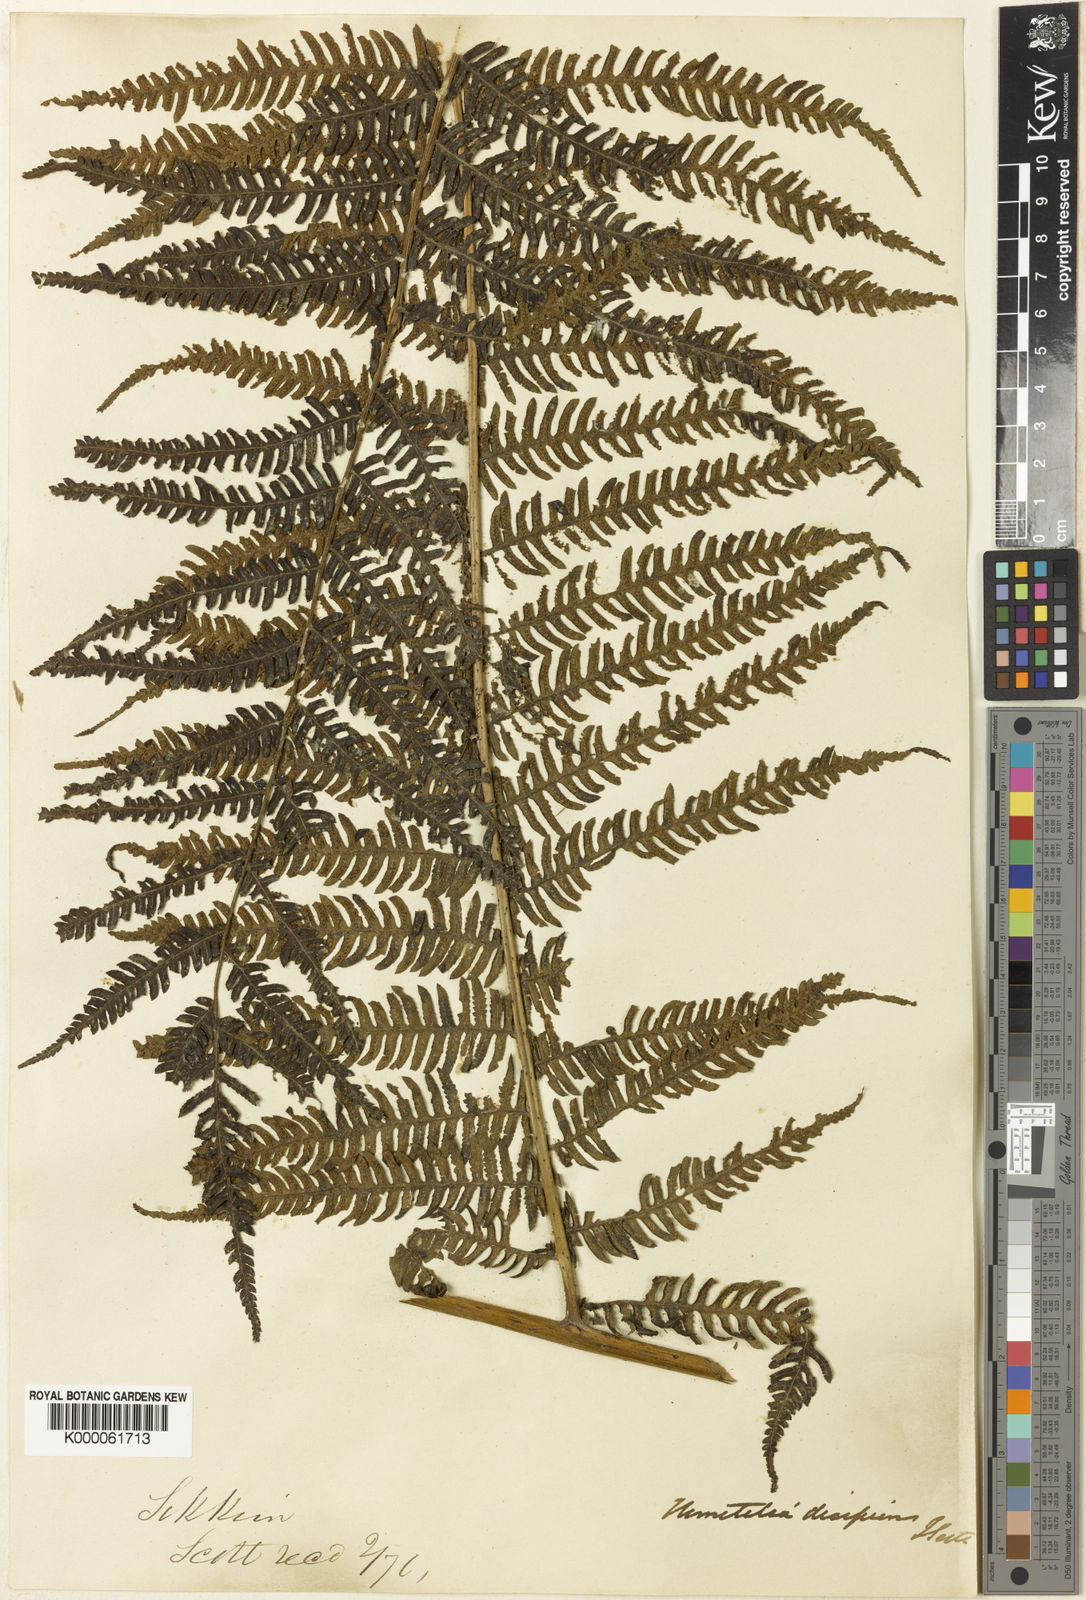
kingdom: Plantae
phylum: Tracheophyta
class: Polypodiopsida
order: Cyatheales
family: Cyatheaceae
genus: Cyathea
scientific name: Cyathea
